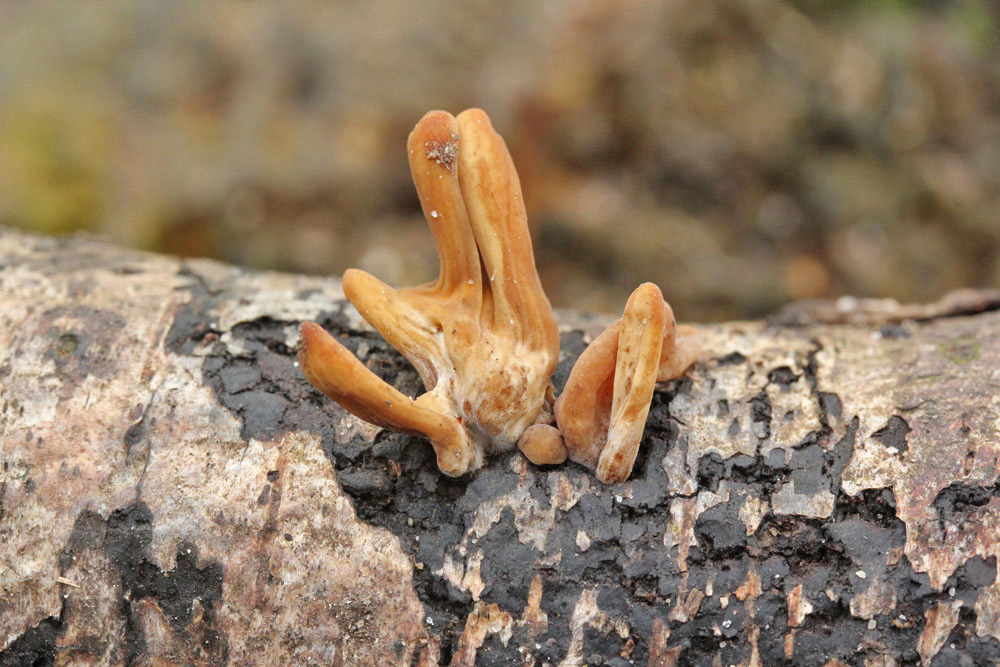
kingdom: Fungi
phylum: Basidiomycota
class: Agaricomycetes
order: Agaricales
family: Typhulaceae
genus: Typhula
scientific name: Typhula fistulosa
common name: pibet rørkølle
